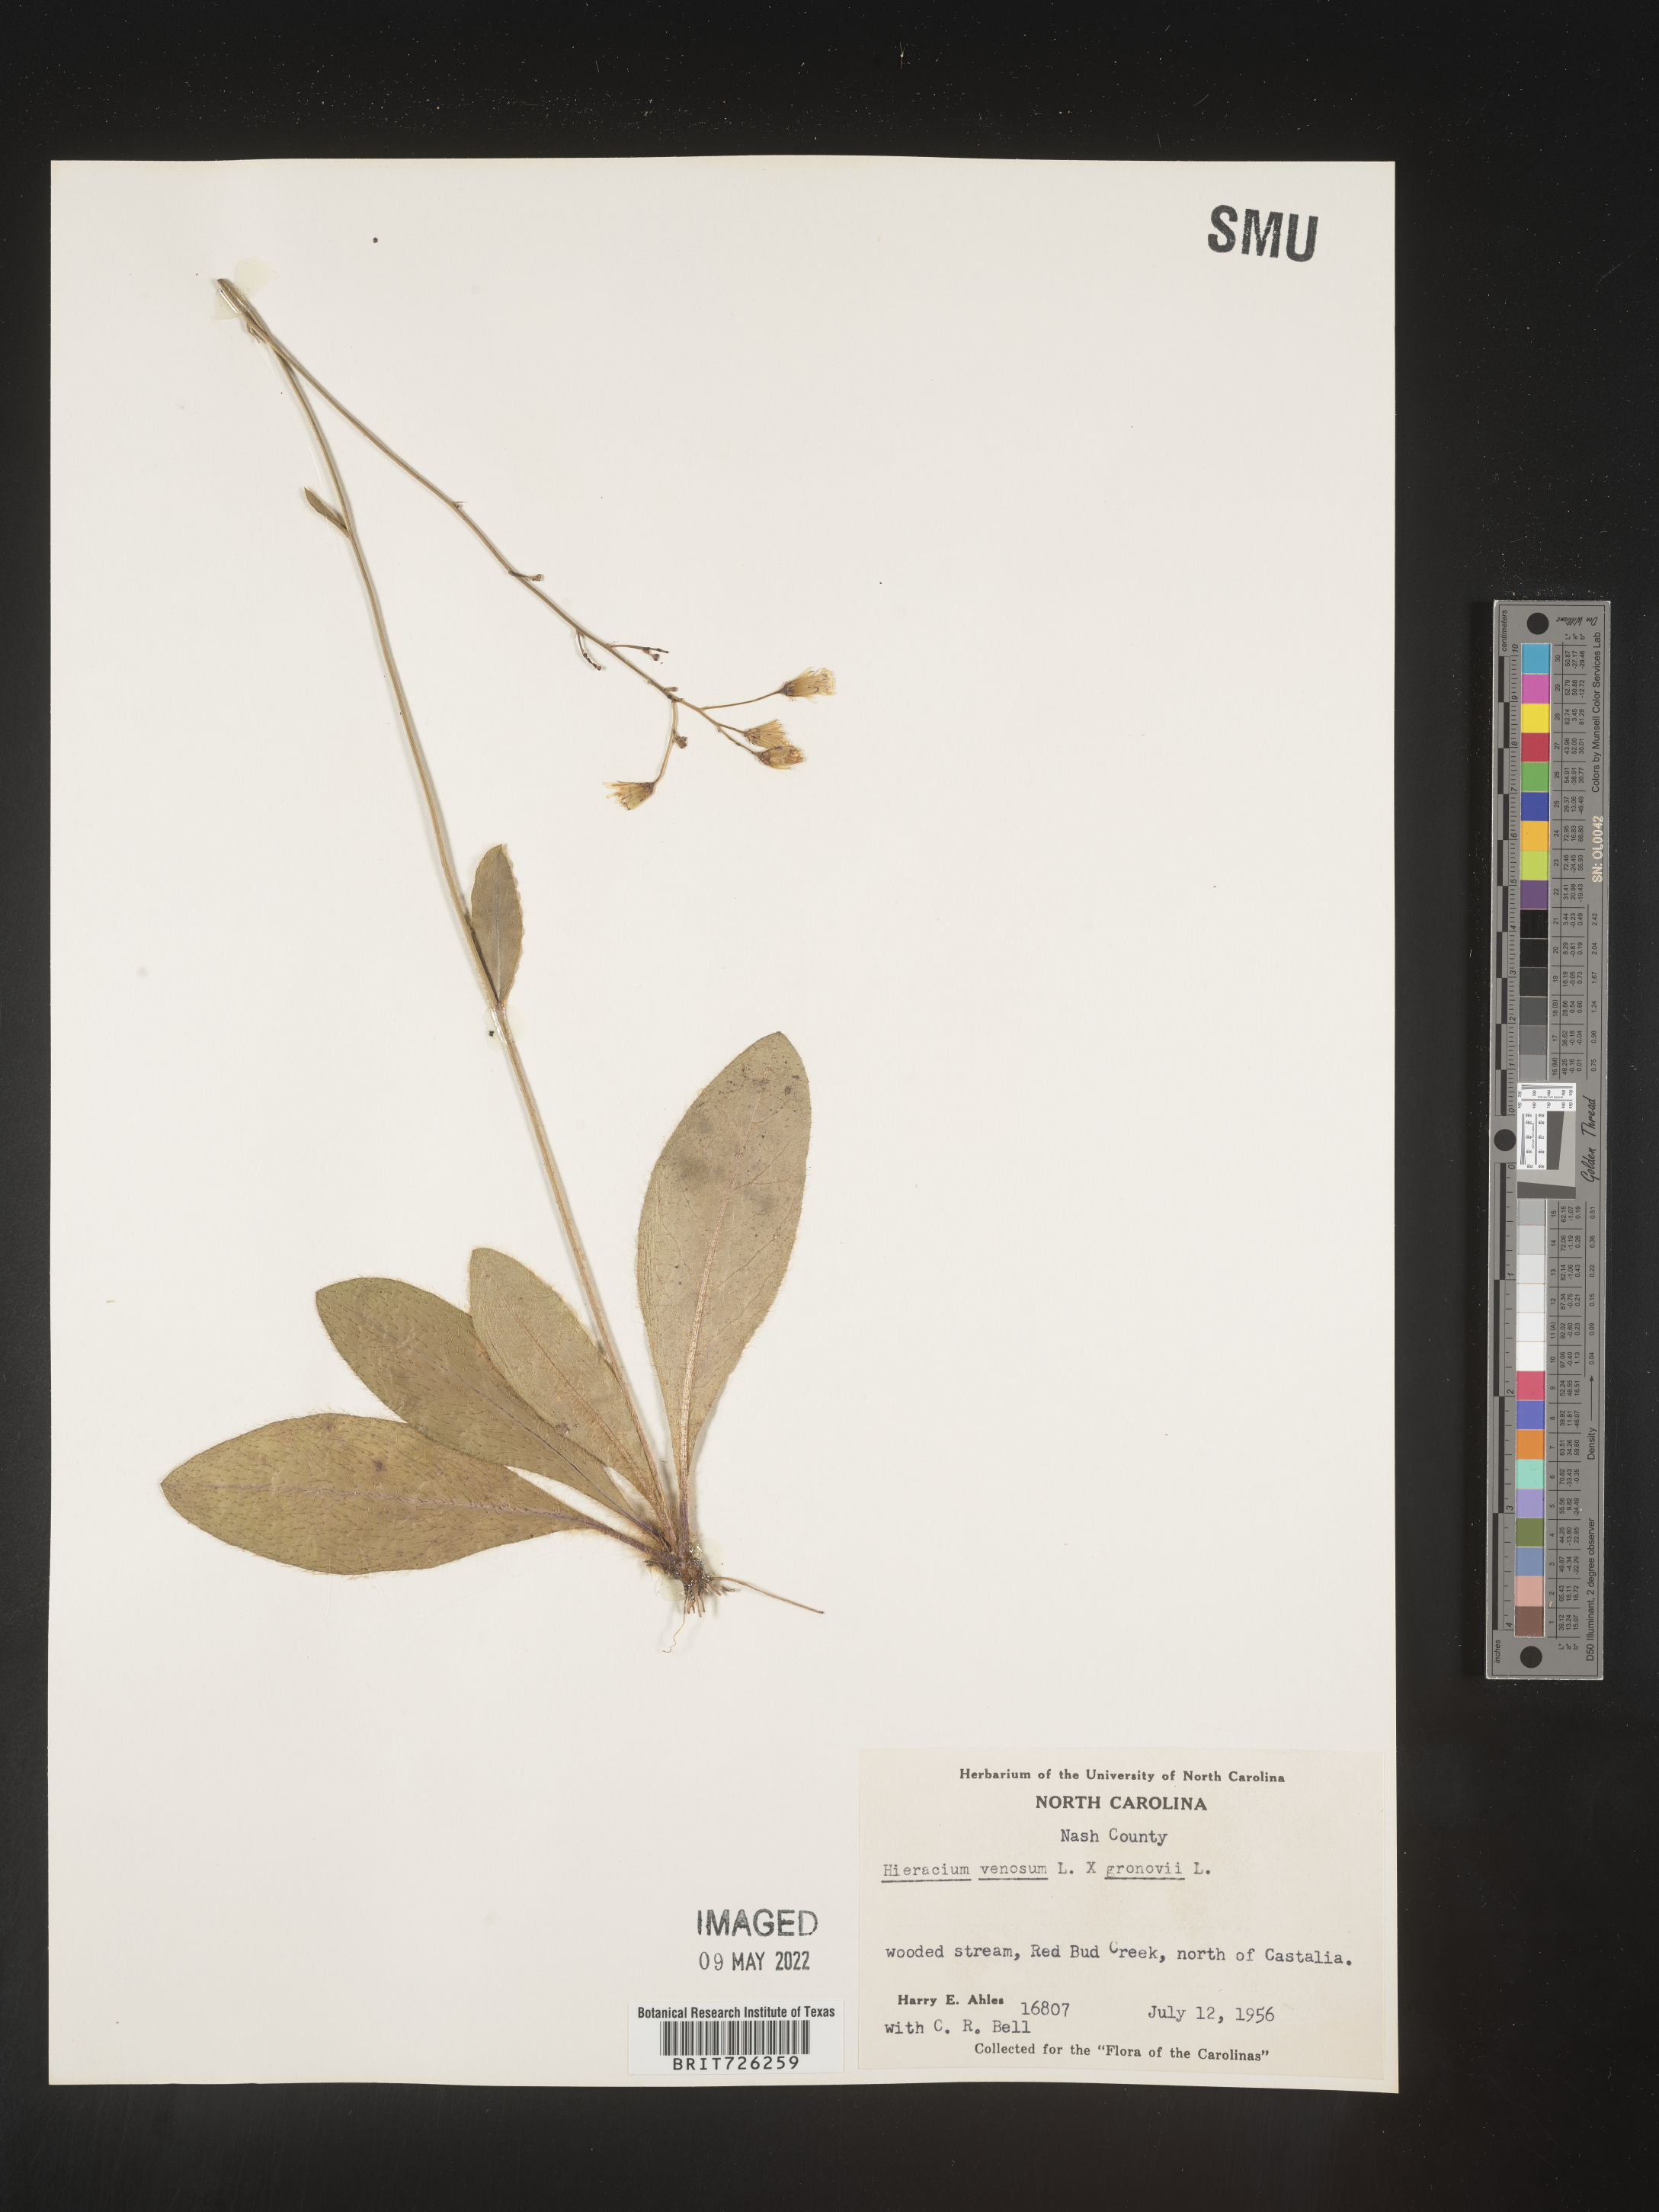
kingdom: Plantae
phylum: Tracheophyta
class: Magnoliopsida
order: Asterales
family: Asteraceae
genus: Hieracium
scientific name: Hieracium
